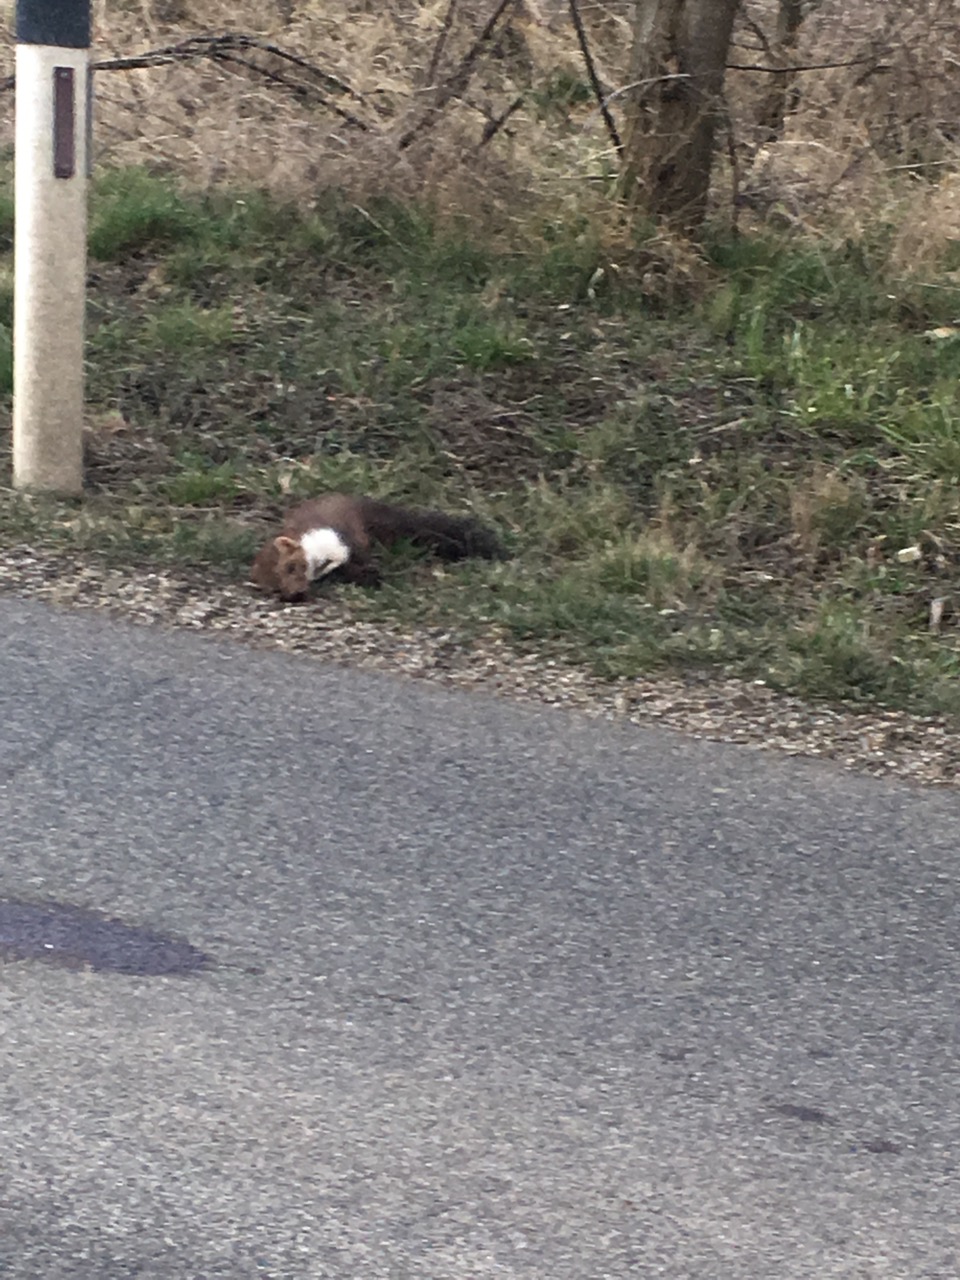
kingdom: Animalia
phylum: Chordata
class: Mammalia
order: Carnivora
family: Mustelidae
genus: Martes
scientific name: Martes foina
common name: Beech marten
